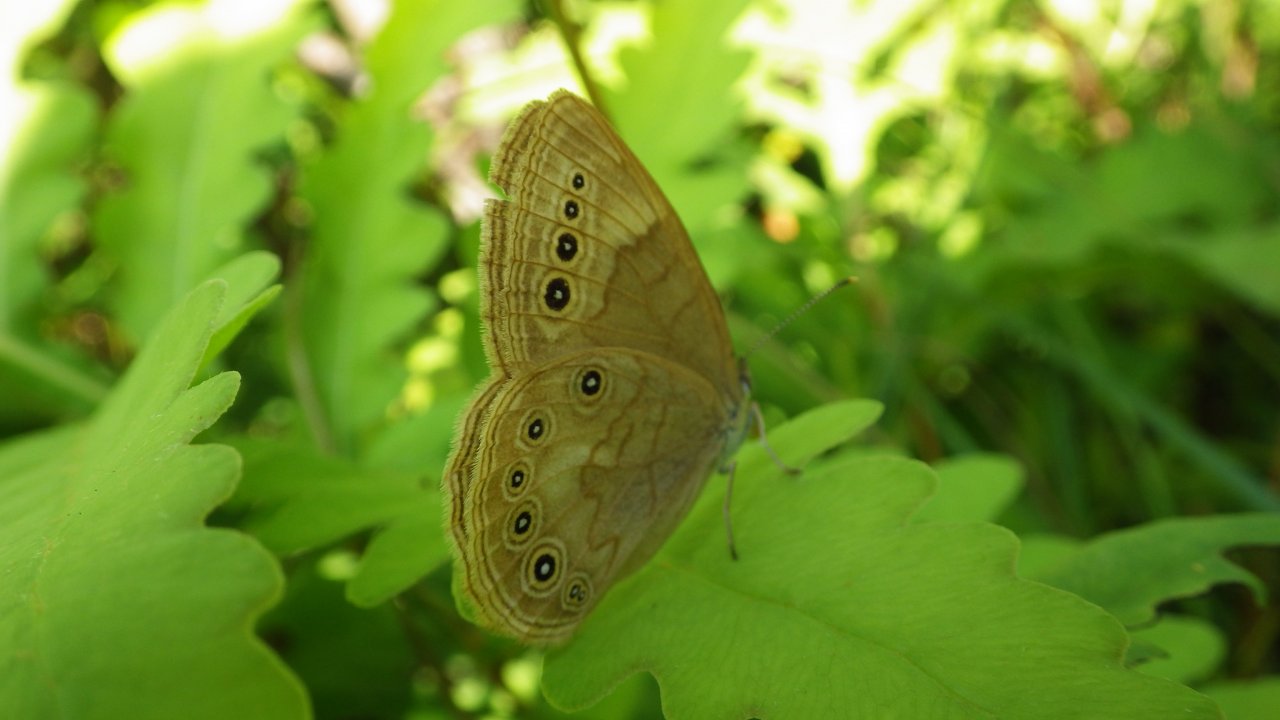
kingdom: Animalia
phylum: Arthropoda
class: Insecta
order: Lepidoptera
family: Nymphalidae
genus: Lethe
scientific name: Lethe eurydice
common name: Eyed Brown
